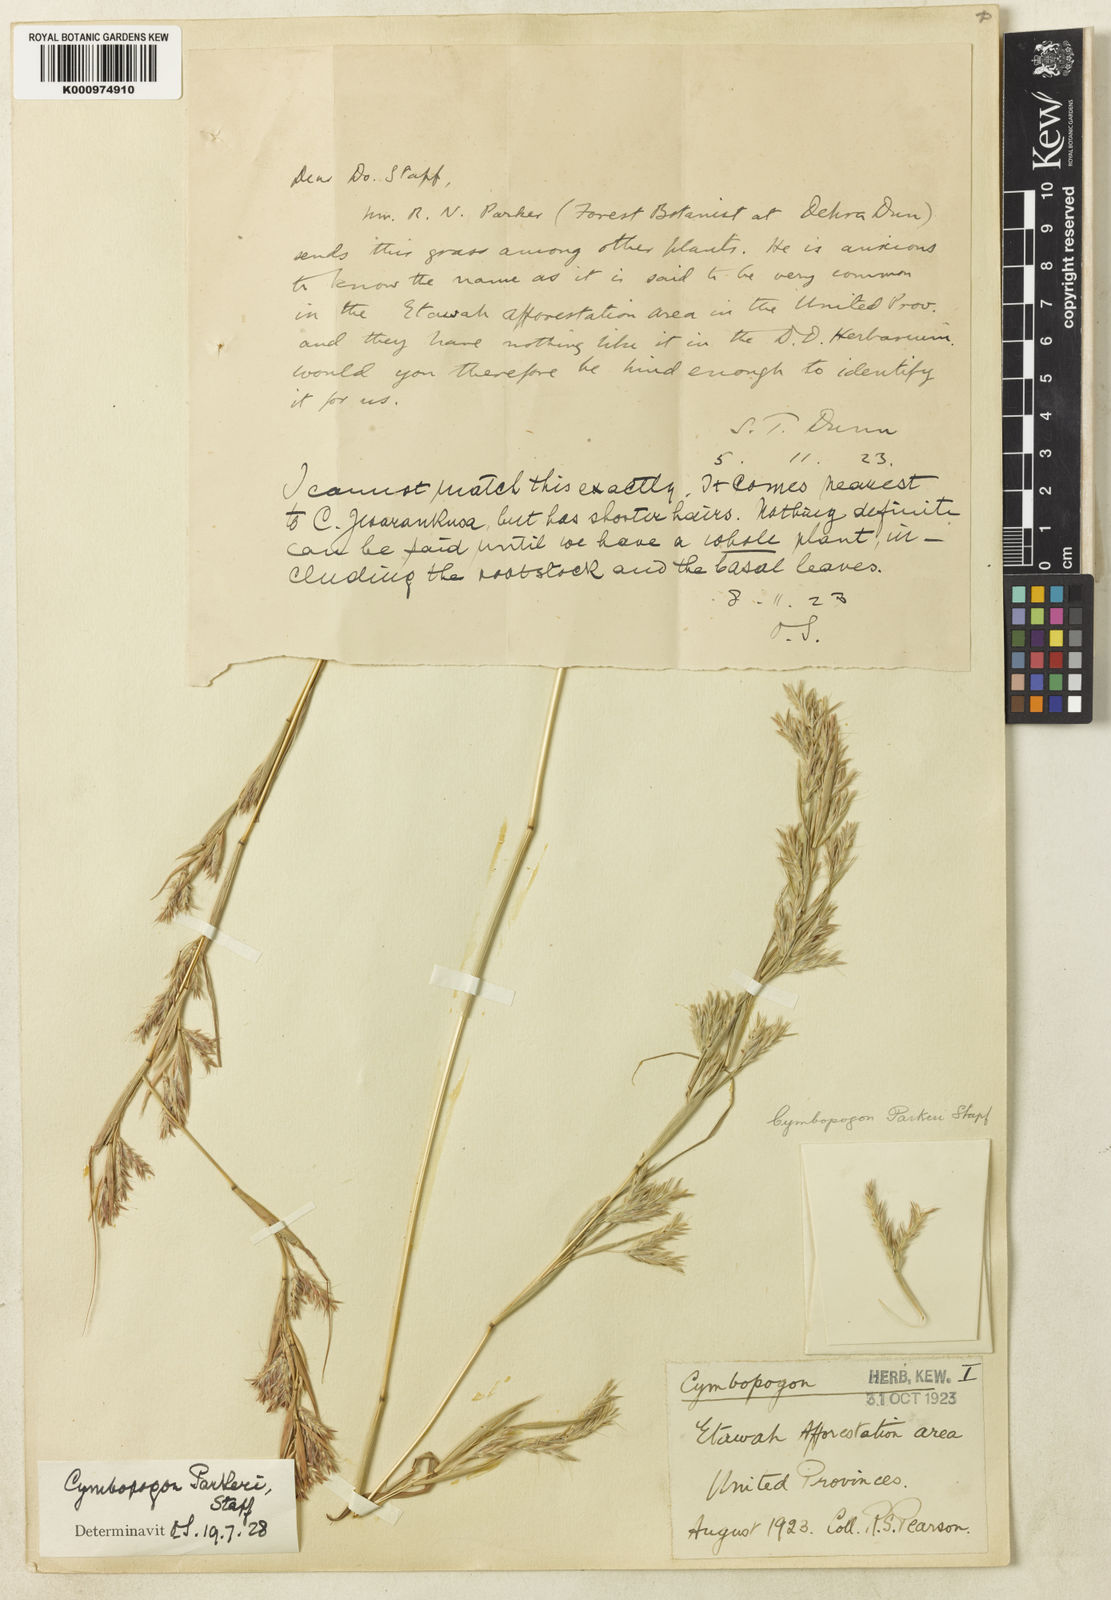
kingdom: Plantae
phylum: Tracheophyta
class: Liliopsida
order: Poales
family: Poaceae
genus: Cymbopogon
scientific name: Cymbopogon commutatus
